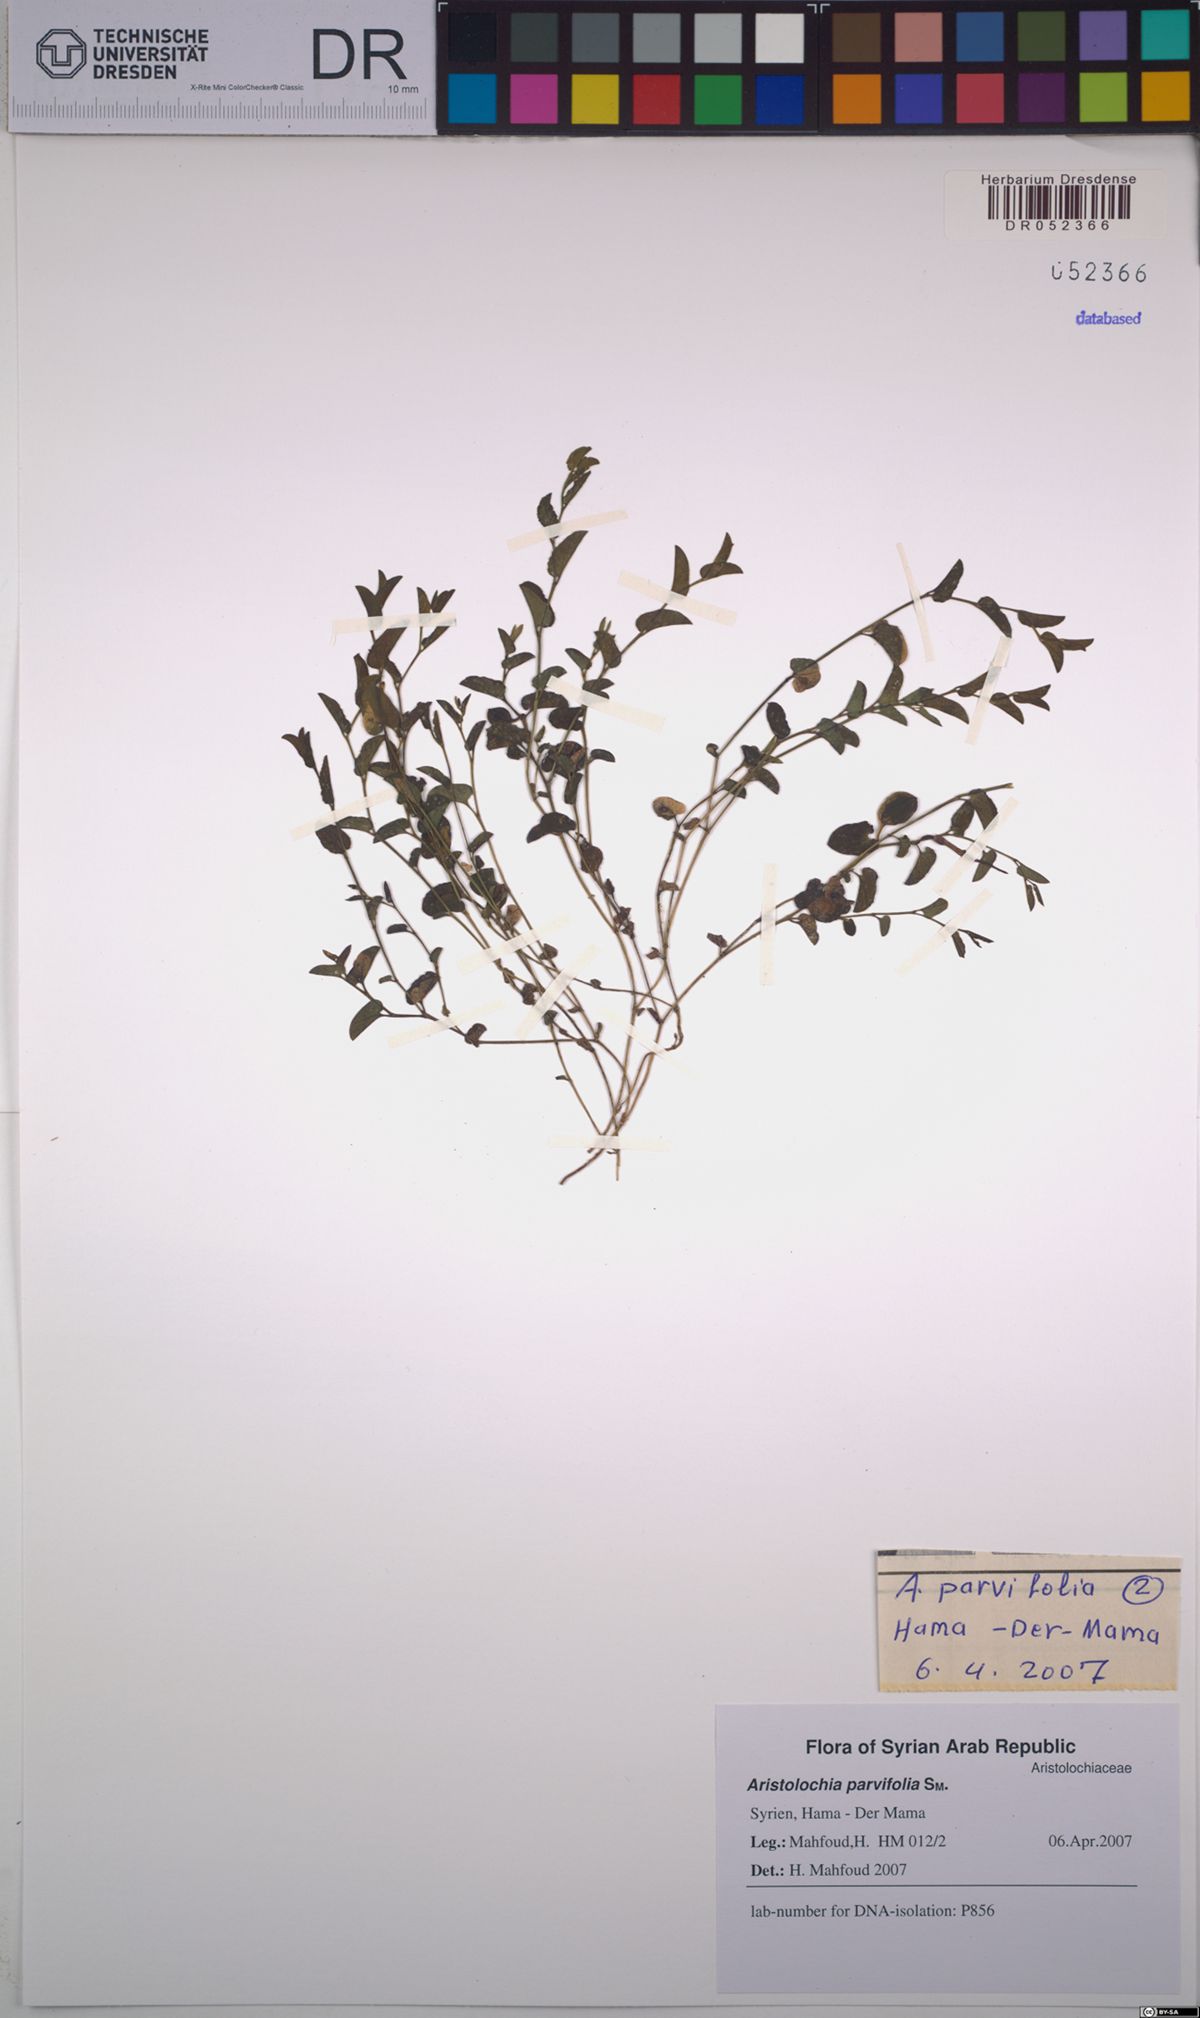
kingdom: Plantae
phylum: Tracheophyta
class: Magnoliopsida
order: Piperales
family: Aristolochiaceae
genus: Aristolochia
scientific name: Aristolochia parvifolia
